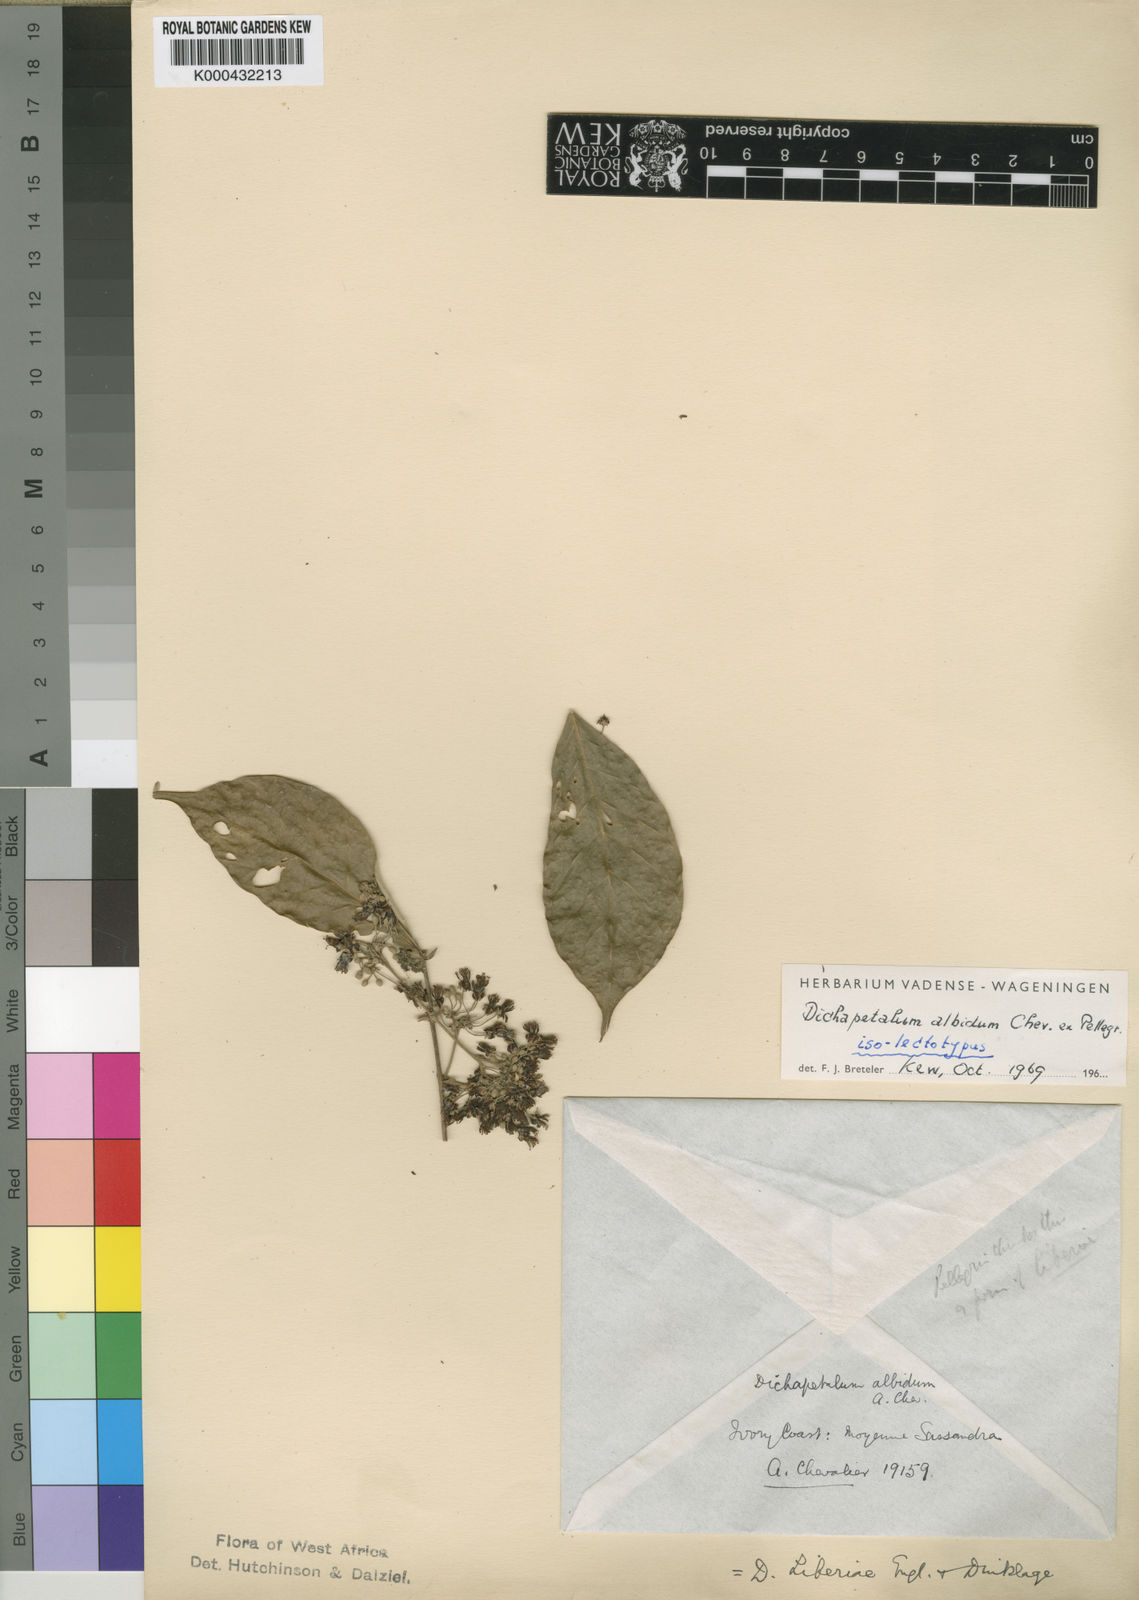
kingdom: Plantae
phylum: Tracheophyta
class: Magnoliopsida
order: Malpighiales
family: Dichapetalaceae
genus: Dichapetalum
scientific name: Dichapetalum albidum
